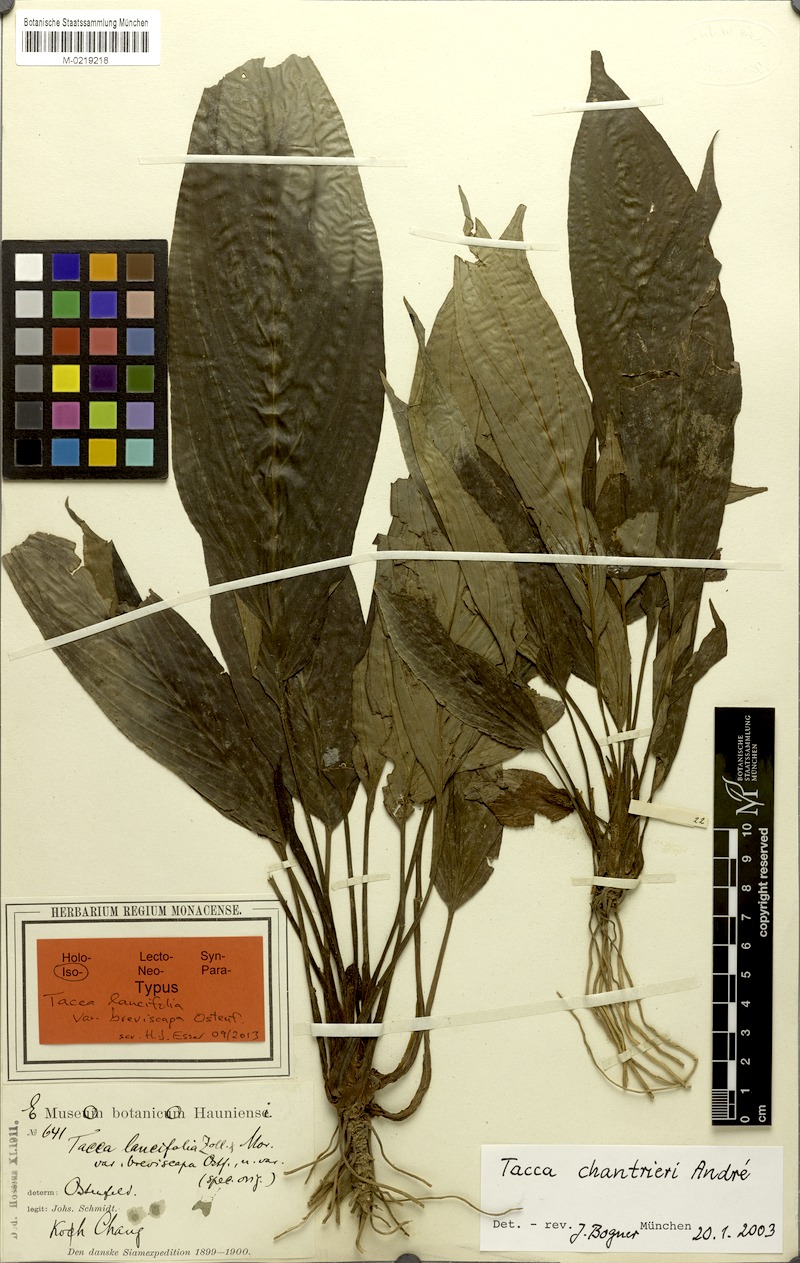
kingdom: Plantae
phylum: Tracheophyta
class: Liliopsida
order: Dioscoreales
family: Dioscoreaceae
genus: Tacca
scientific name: Tacca chantrieri
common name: Cat's-whiskers
